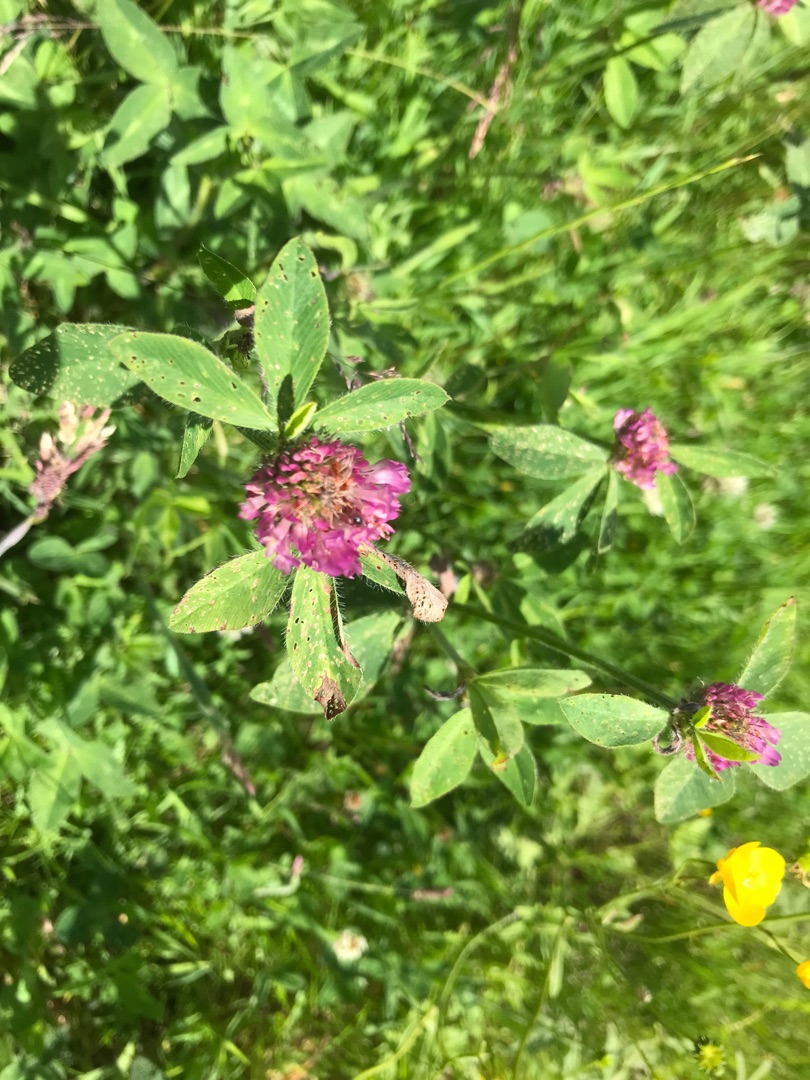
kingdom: Plantae
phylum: Tracheophyta
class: Magnoliopsida
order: Fabales
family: Fabaceae
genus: Trifolium
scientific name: Trifolium pratense
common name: Rød-kløver
